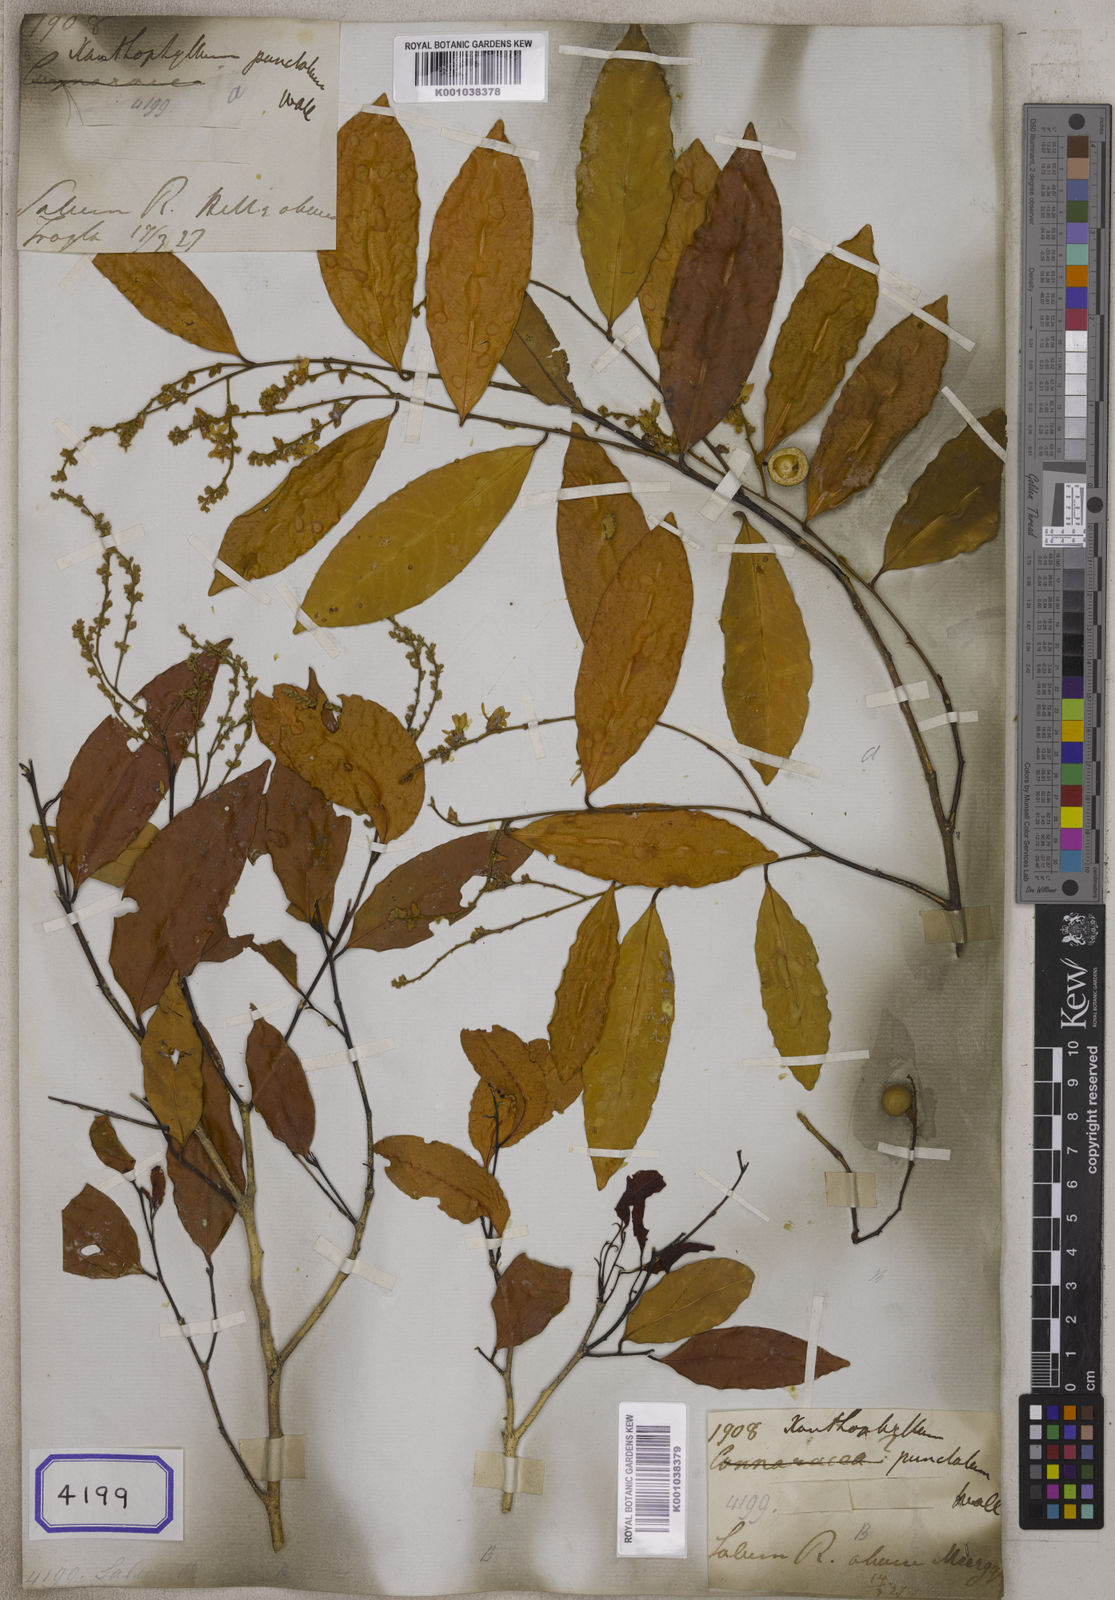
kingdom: Plantae
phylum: Tracheophyta
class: Magnoliopsida
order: Fabales
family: Polygalaceae
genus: Xanthophyllum
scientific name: Xanthophyllum
